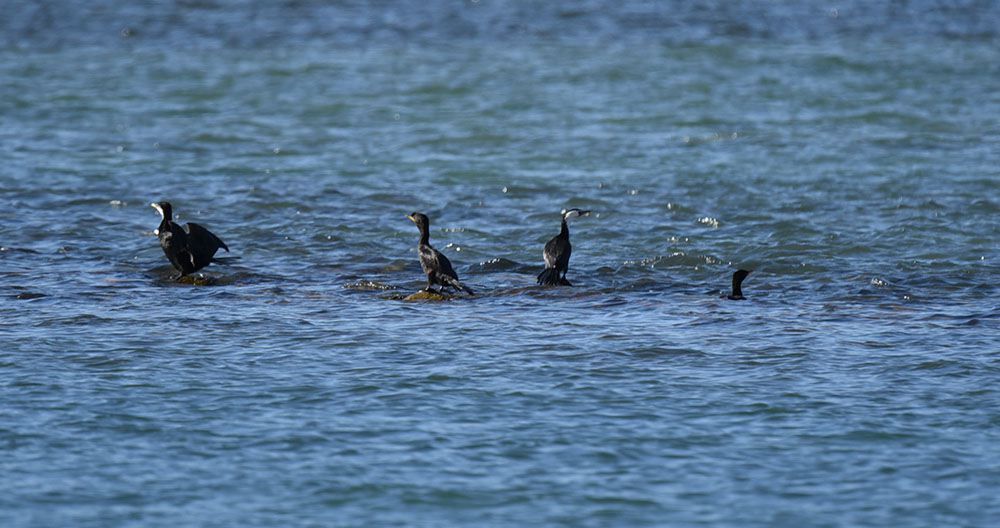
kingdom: Animalia
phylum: Chordata
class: Aves
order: Suliformes
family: Phalacrocoracidae
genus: Microcarbo
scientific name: Microcarbo melanoleucos
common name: Little pied cormorant
